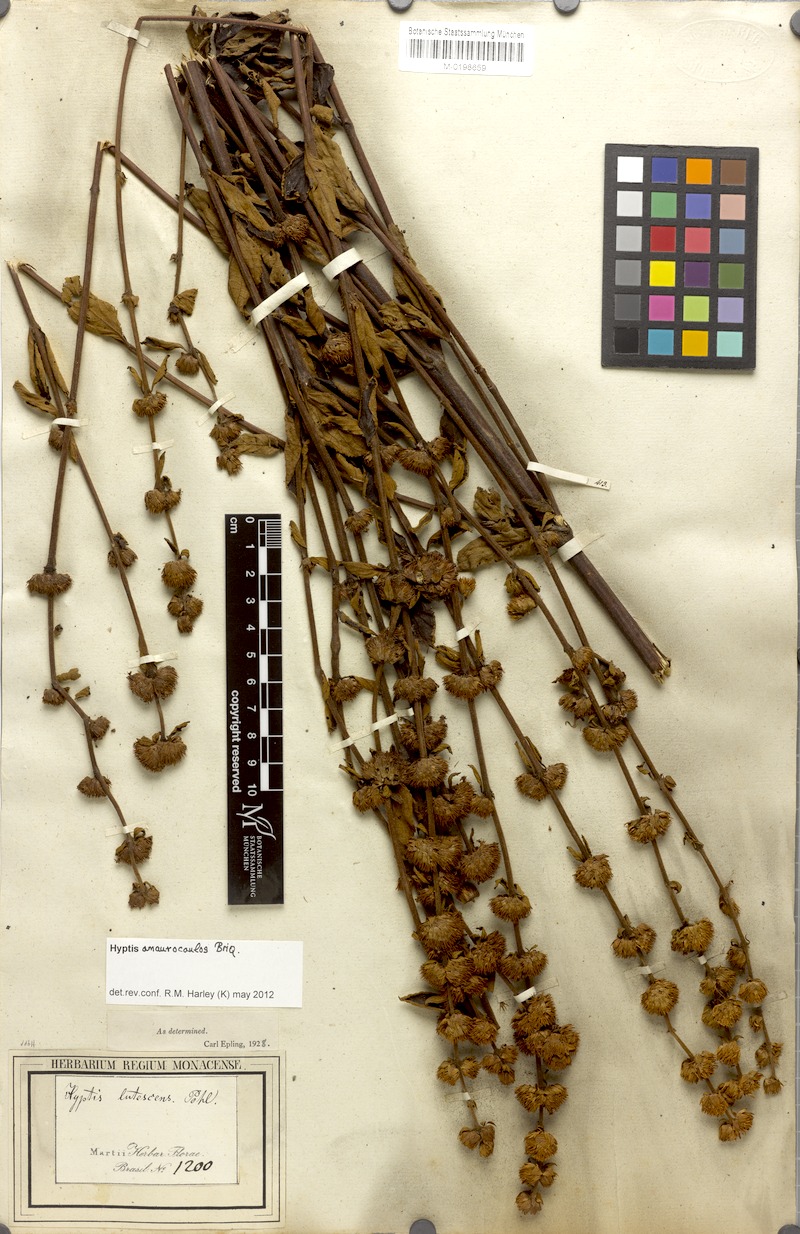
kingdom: Plantae
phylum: Tracheophyta
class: Magnoliopsida
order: Lamiales
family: Lamiaceae
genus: Hyptis
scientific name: Hyptis amaurocaulis
